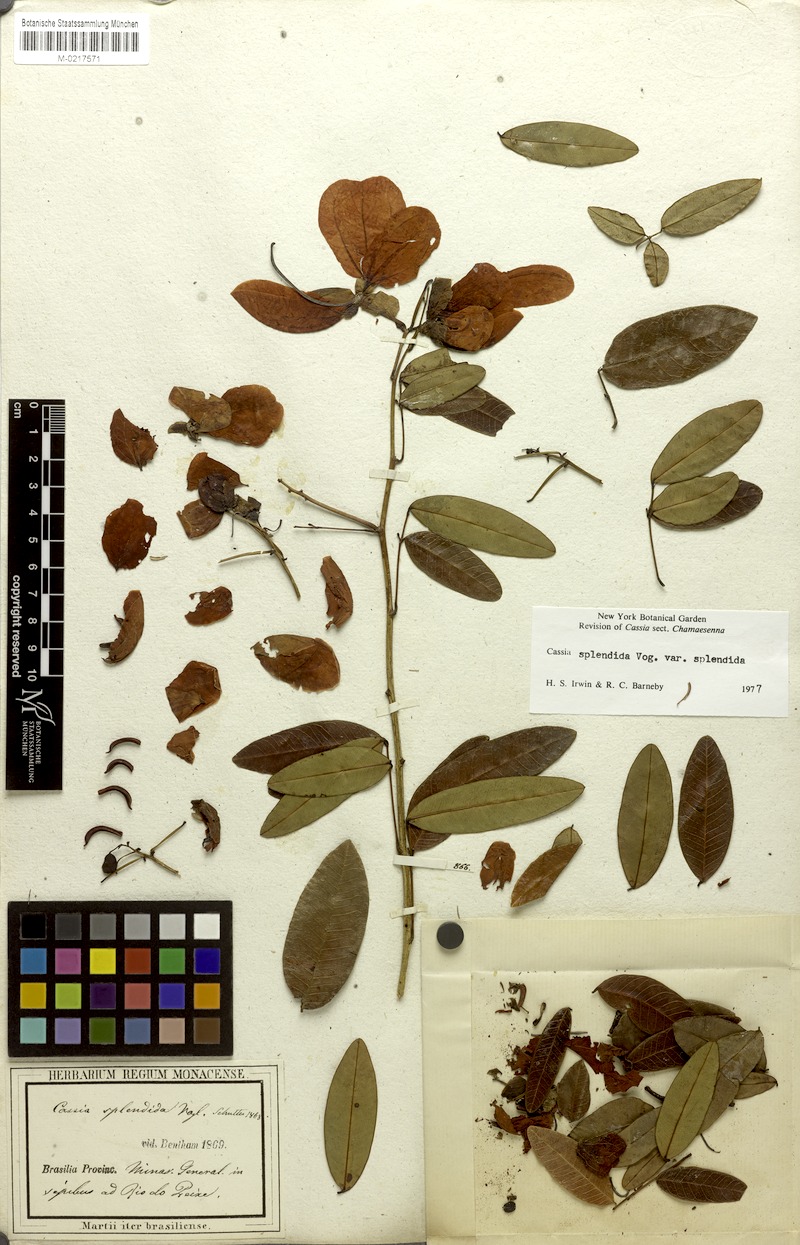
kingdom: Plantae
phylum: Tracheophyta
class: Magnoliopsida
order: Fabales
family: Fabaceae
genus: Senna
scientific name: Senna splendida
